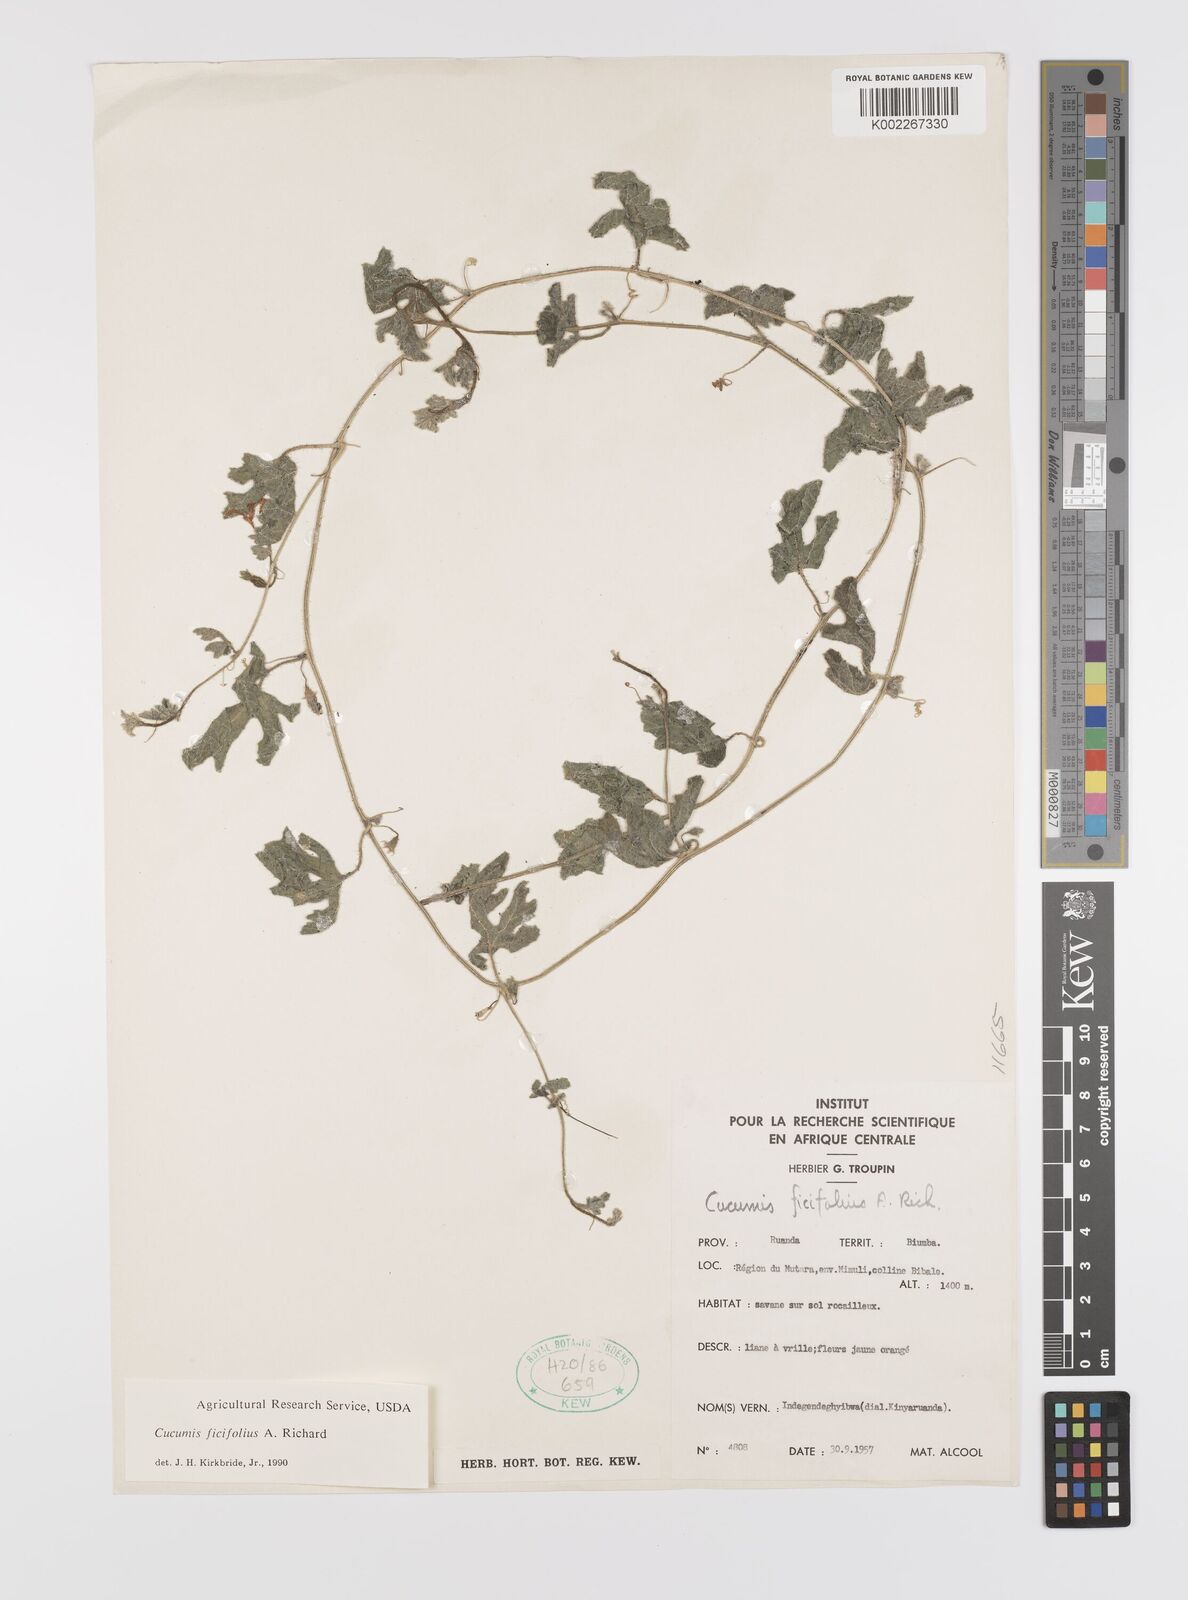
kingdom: Plantae
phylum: Tracheophyta
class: Magnoliopsida
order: Cucurbitales
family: Cucurbitaceae
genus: Cucumis
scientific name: Cucumis ficifolius
